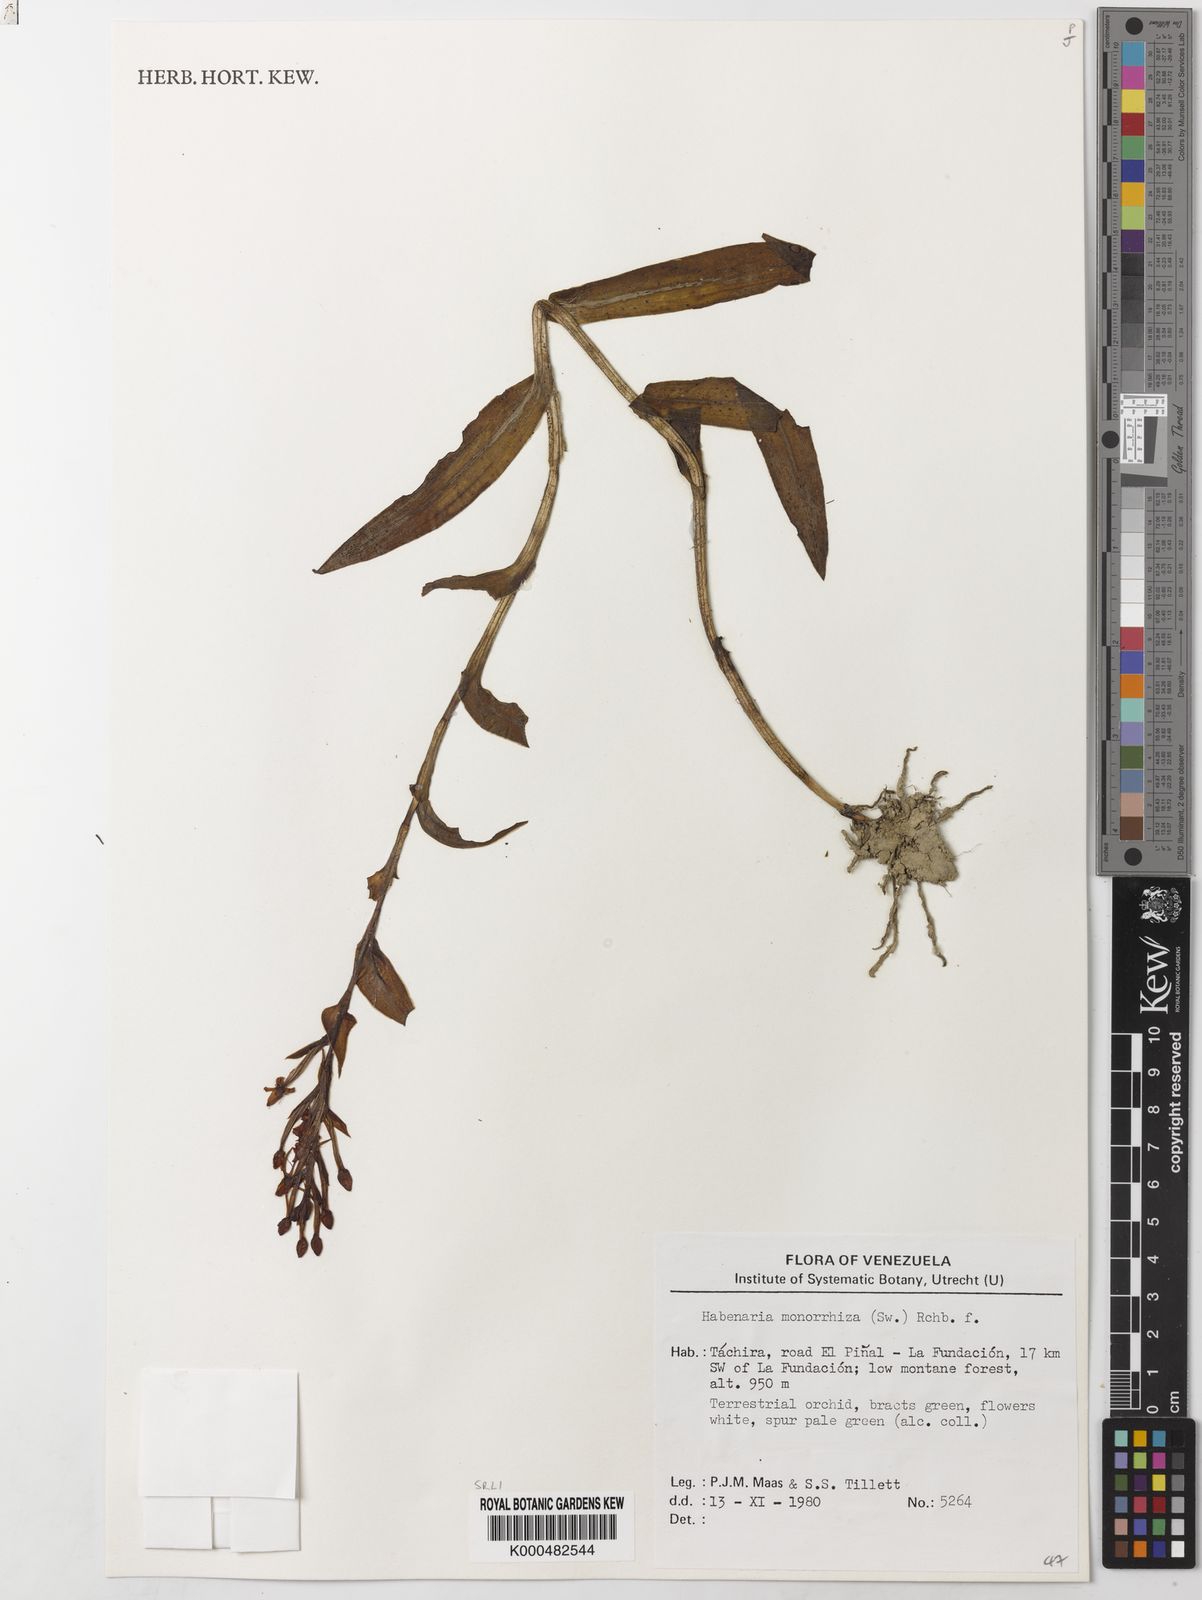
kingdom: Plantae
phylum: Tracheophyta
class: Liliopsida
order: Asparagales
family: Orchidaceae
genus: Habenaria
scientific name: Habenaria monorrhiza
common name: Tropical bog orchid
